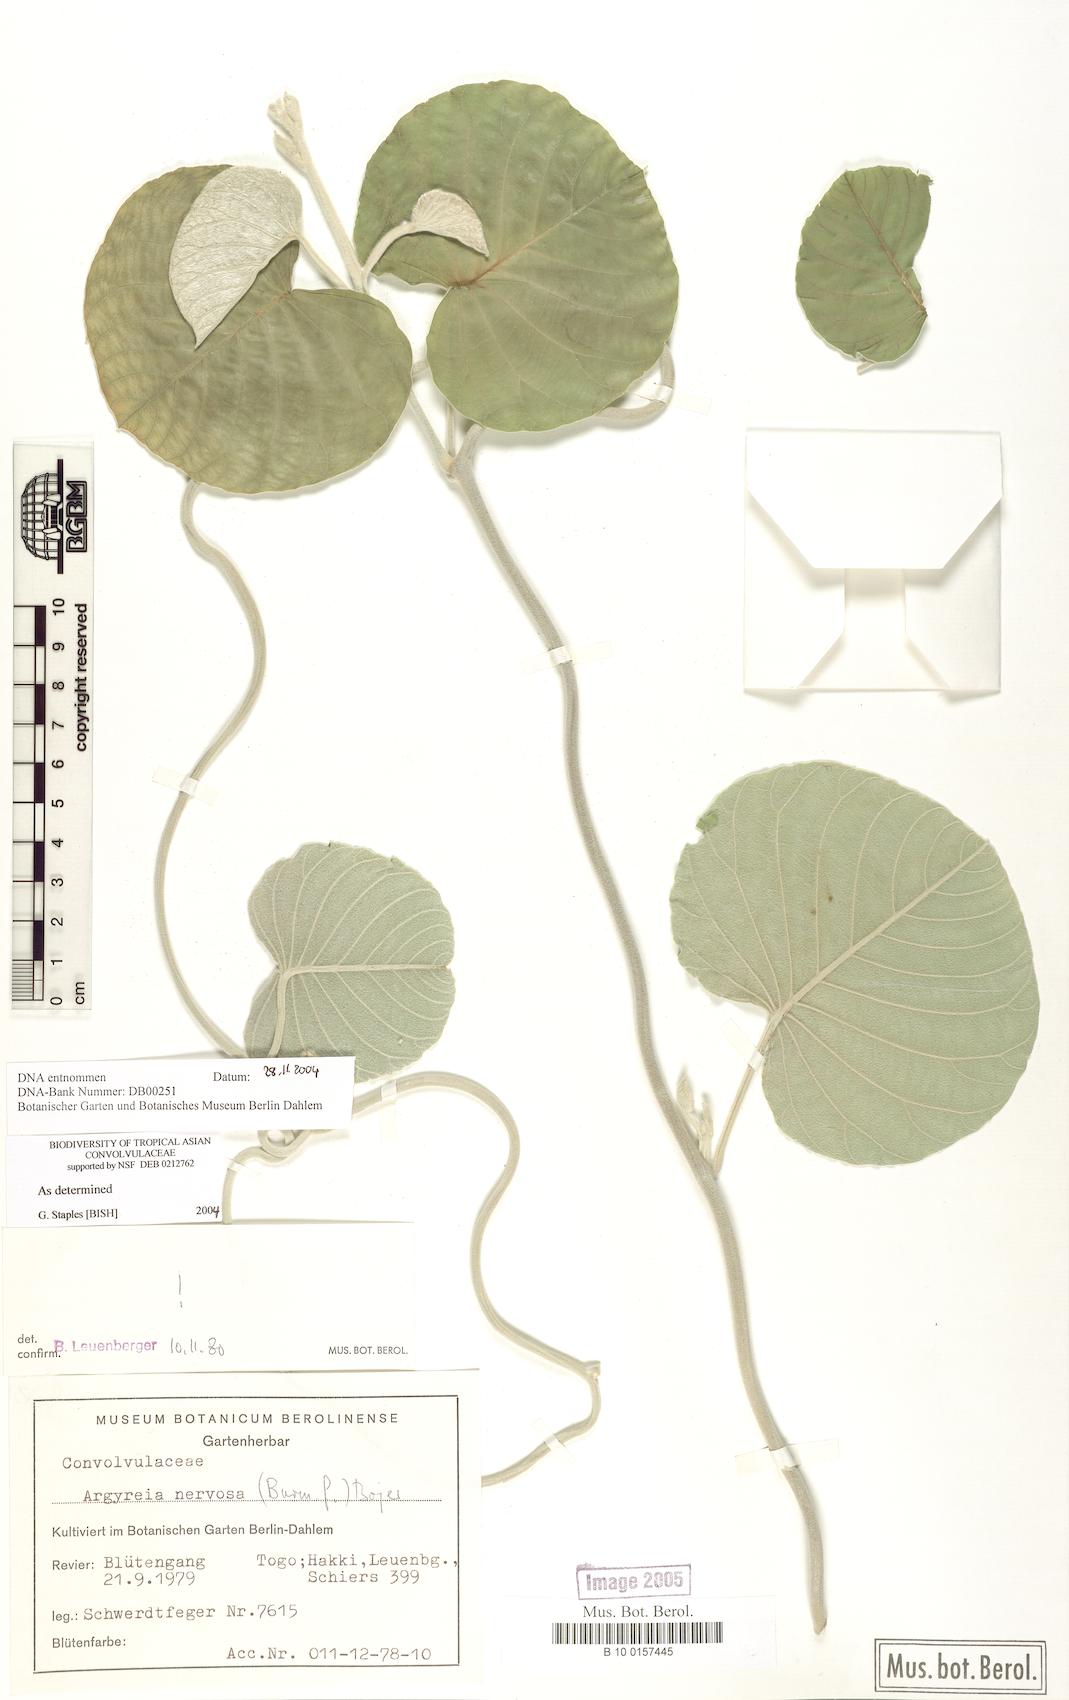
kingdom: Plantae
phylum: Tracheophyta
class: Magnoliopsida
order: Solanales
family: Convolvulaceae
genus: Argyreia
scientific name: Argyreia nervosa
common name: Elephant creeper
